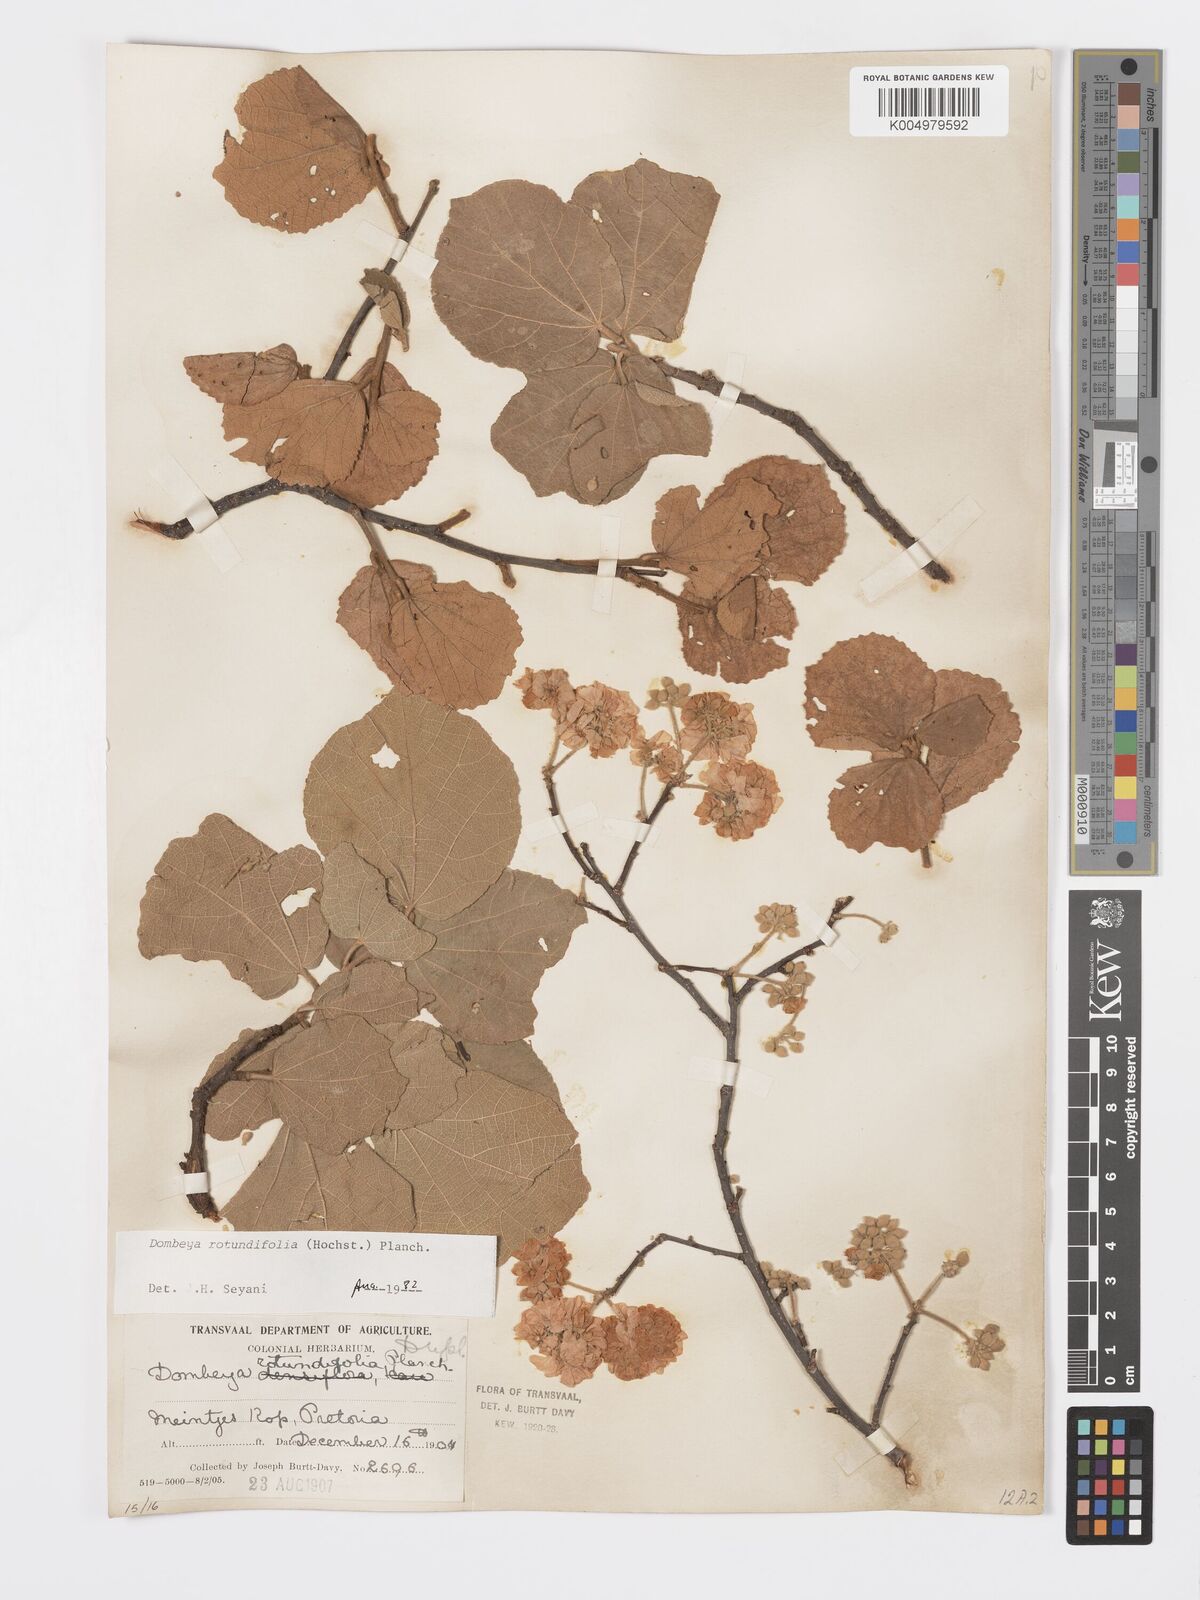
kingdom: Plantae
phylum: Tracheophyta
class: Magnoliopsida
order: Malvales
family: Malvaceae
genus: Dombeya
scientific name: Dombeya rotundifolia
